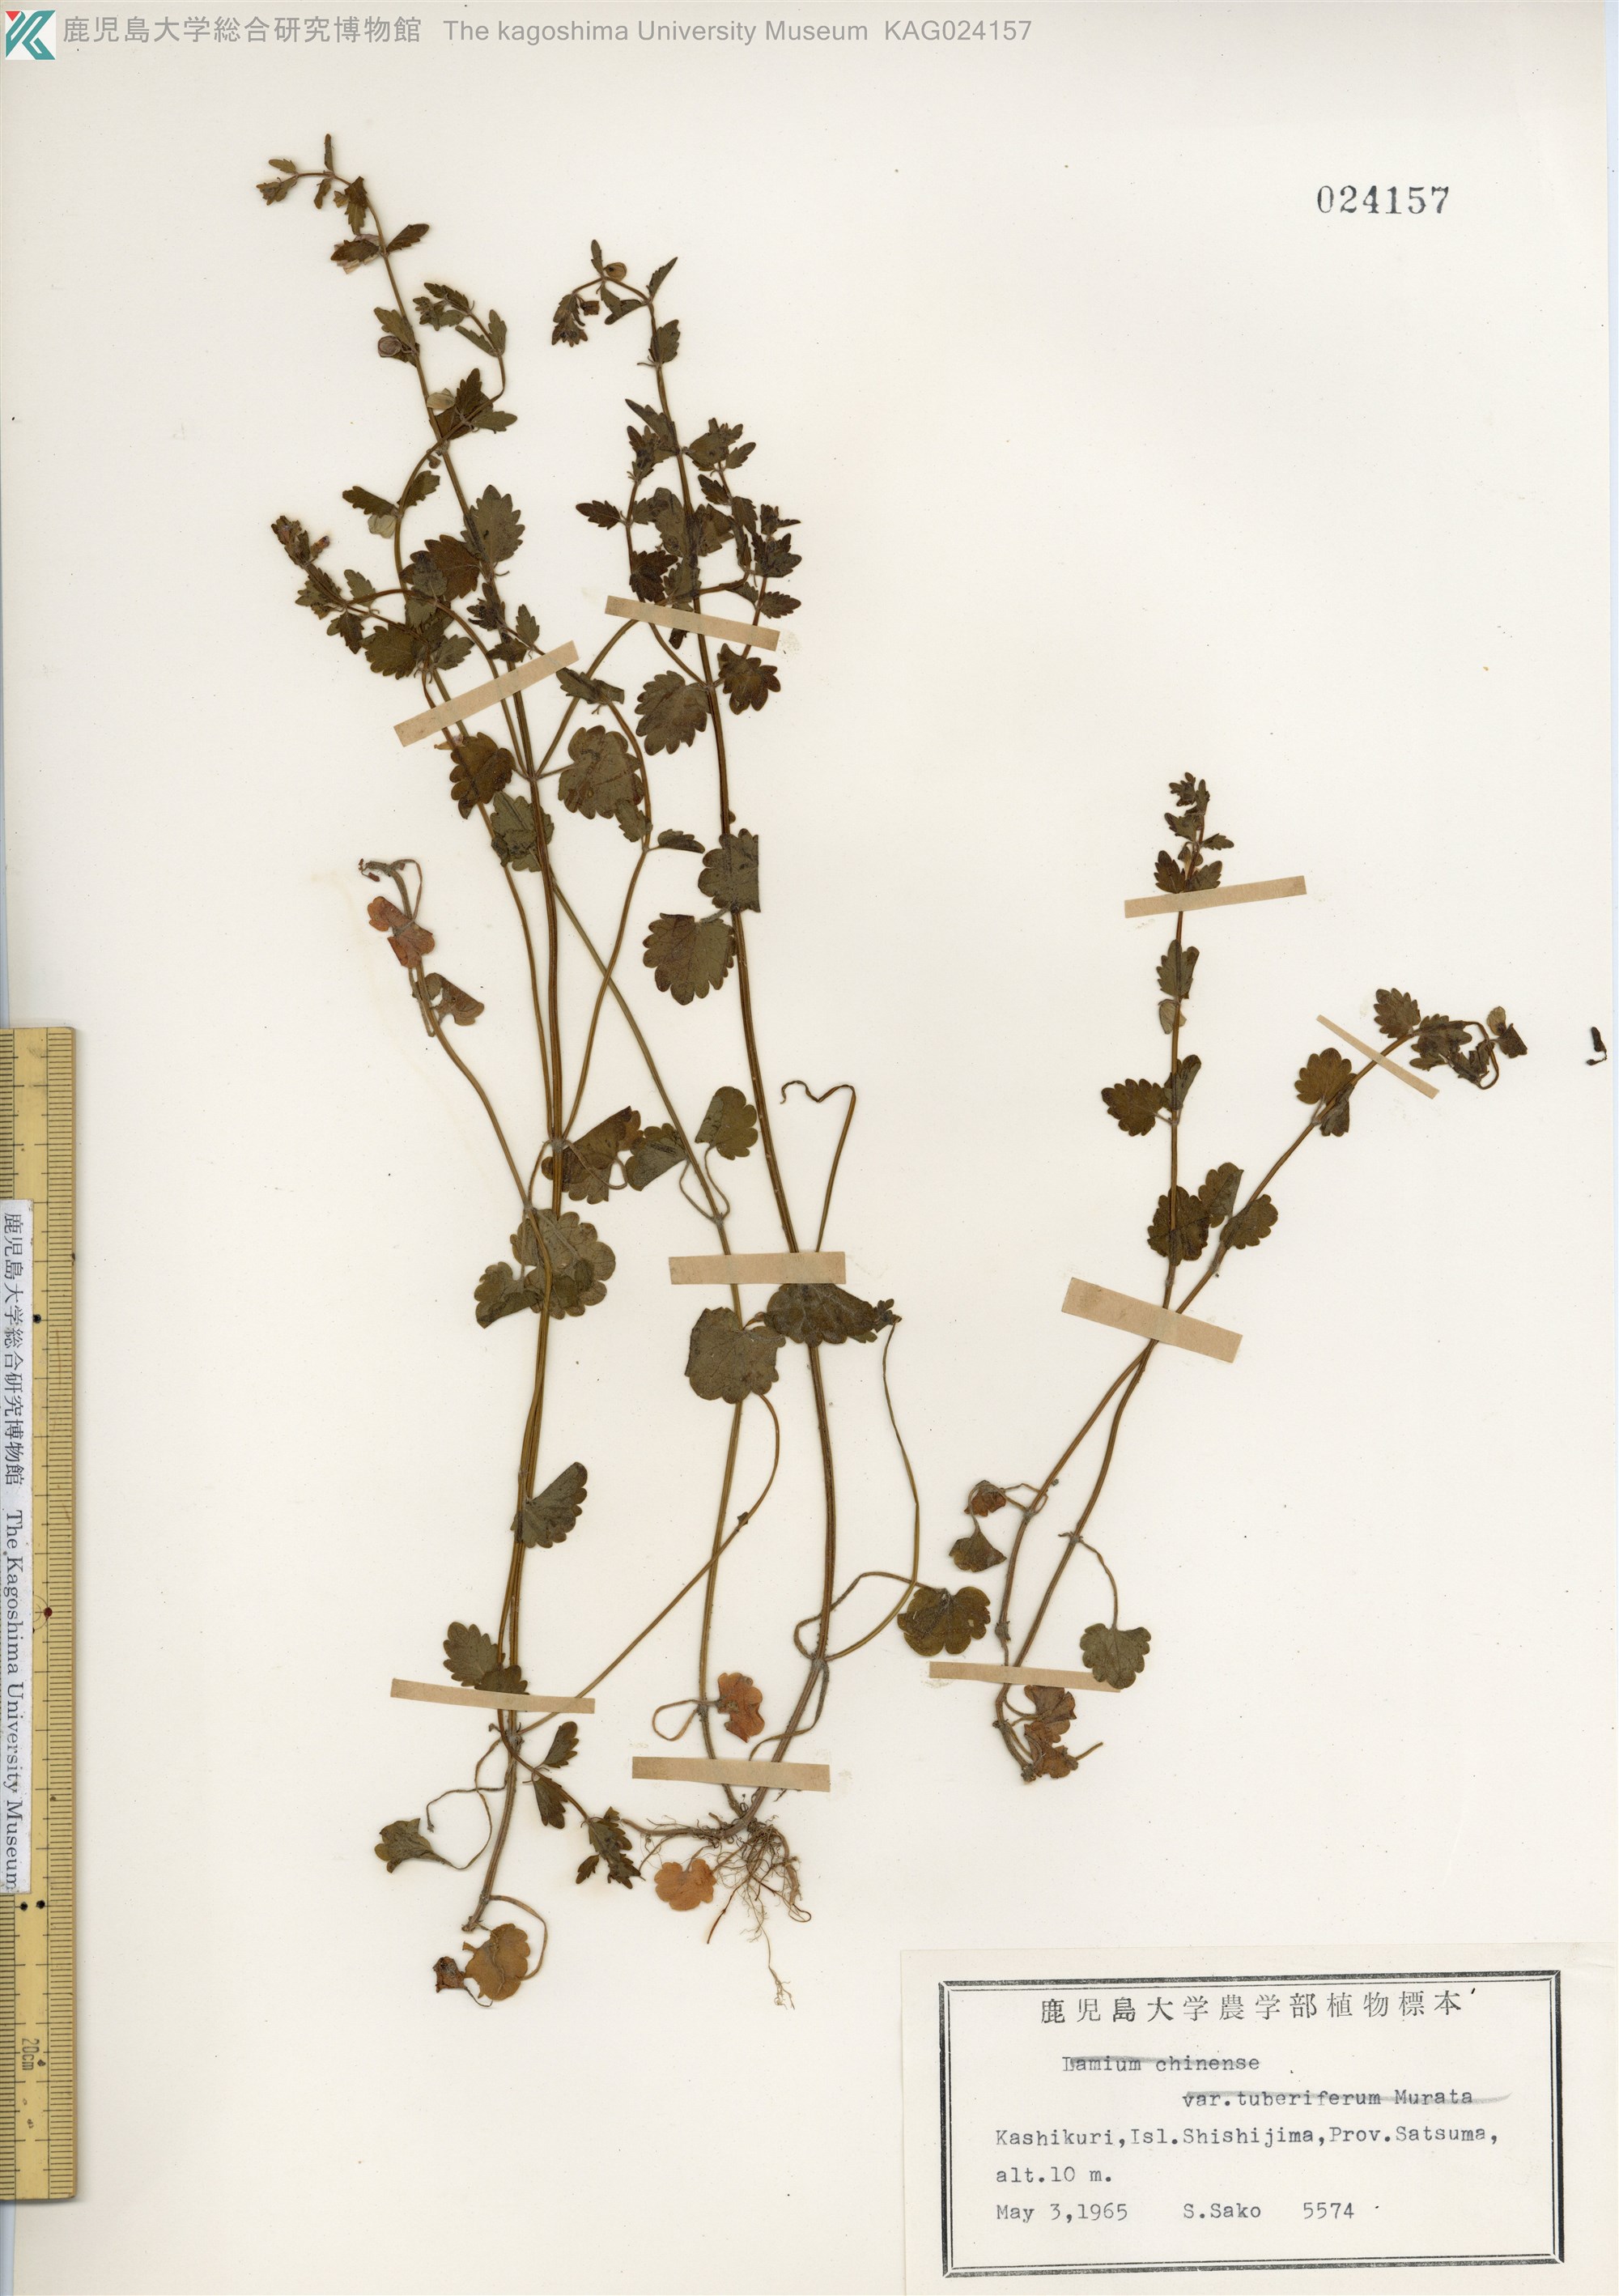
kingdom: Plantae
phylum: Tracheophyta
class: Magnoliopsida
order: Lamiales
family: Lamiaceae
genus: Scutellaria
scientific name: Scutellaria guilielmi
